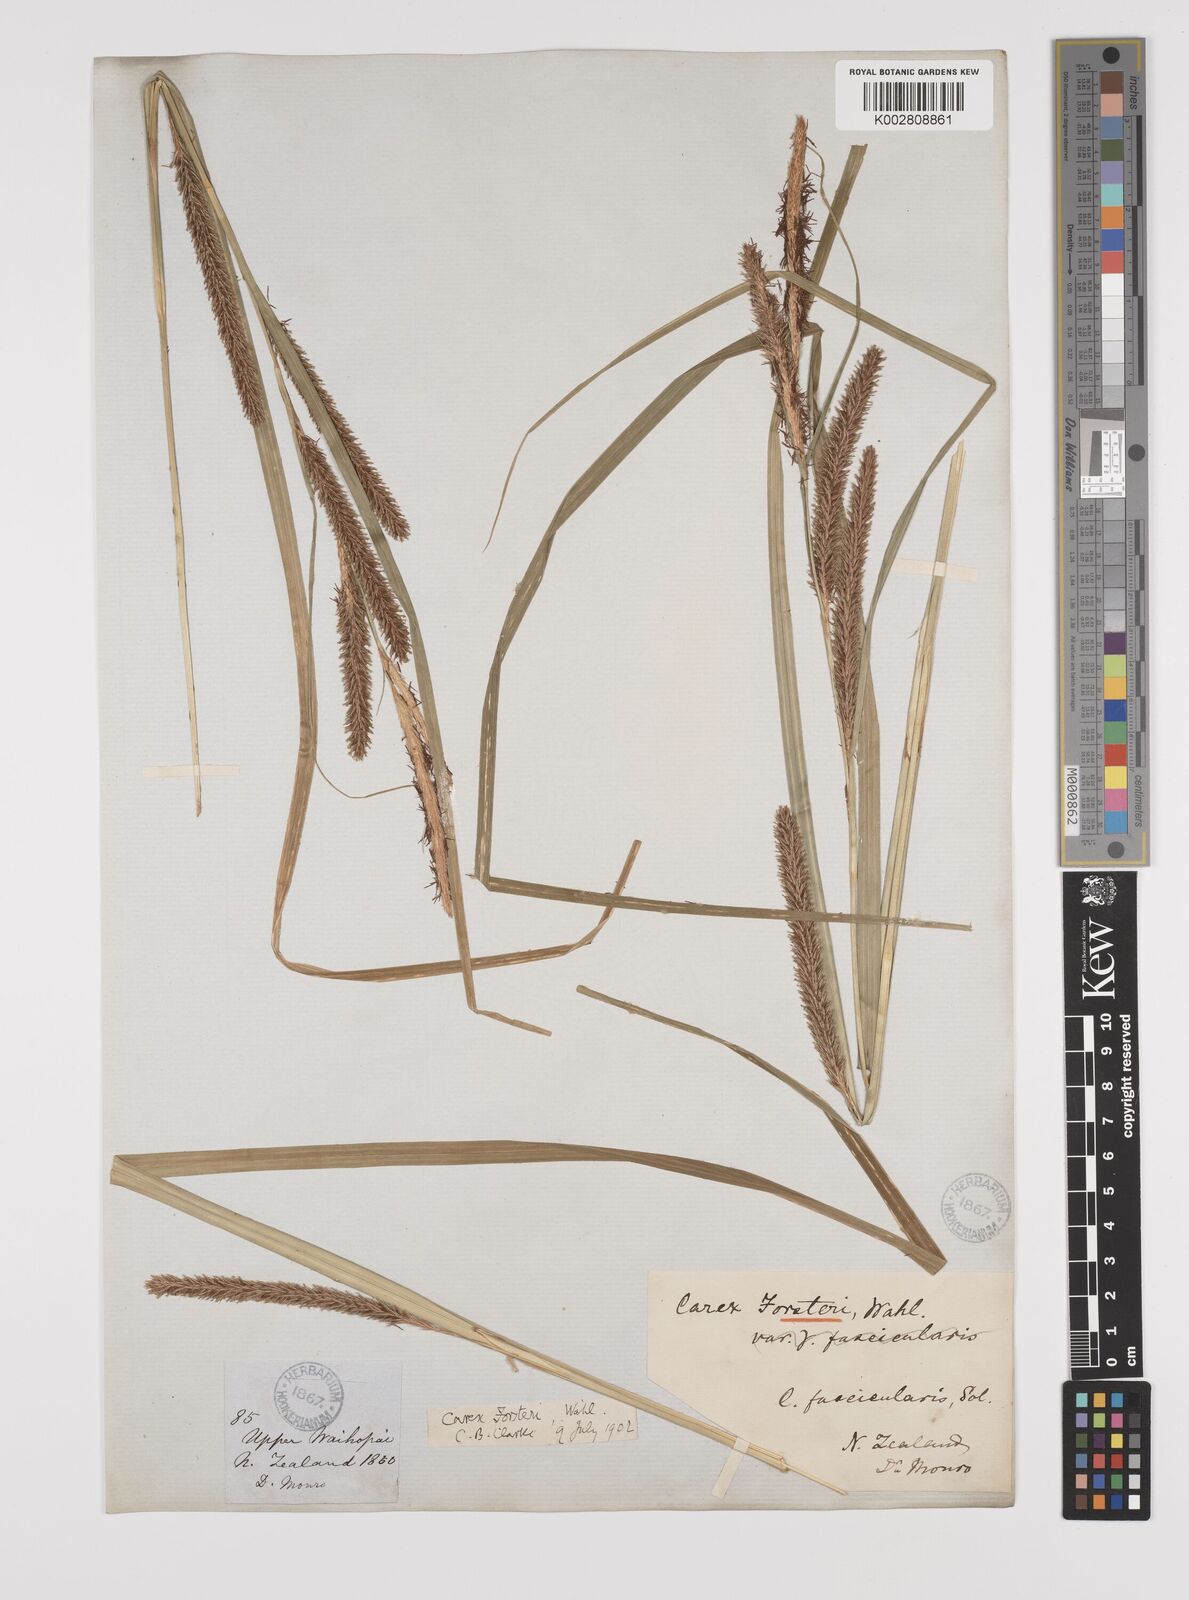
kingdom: Plantae
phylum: Tracheophyta
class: Liliopsida
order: Poales
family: Cyperaceae
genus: Carex
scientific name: Carex forsteri
